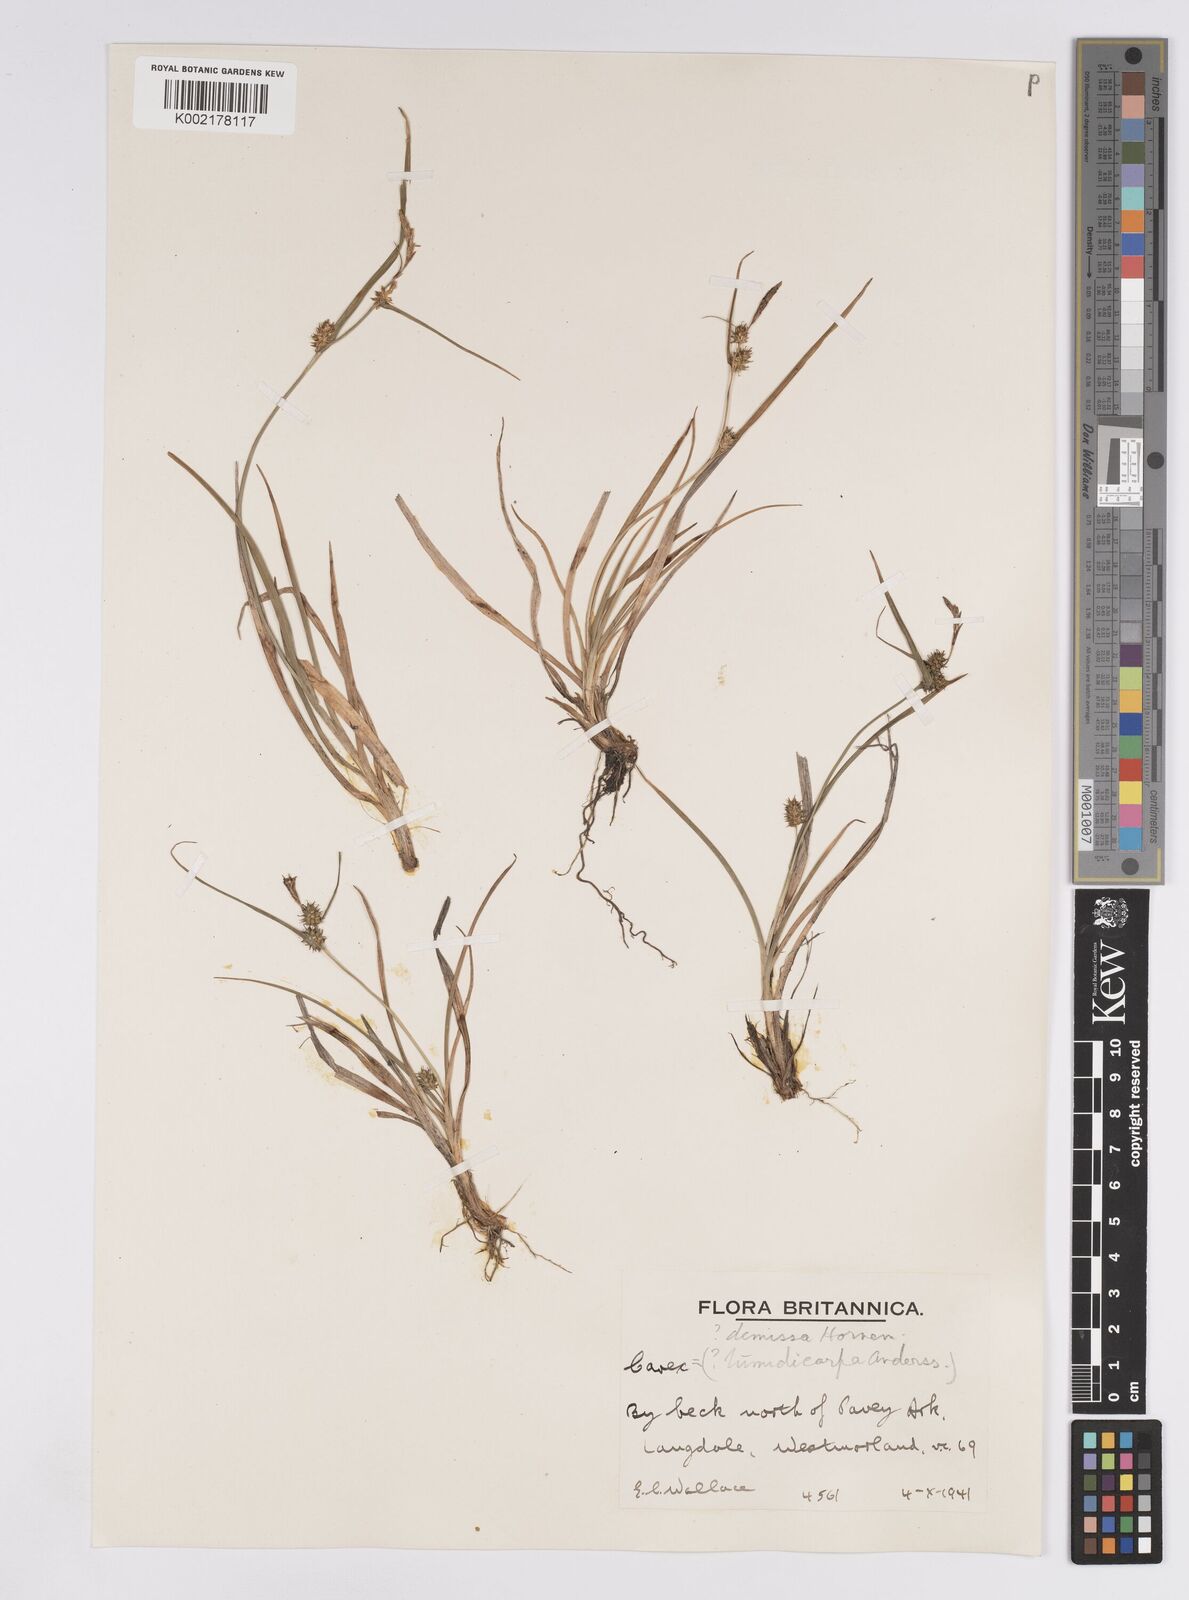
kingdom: Plantae
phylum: Tracheophyta
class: Liliopsida
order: Poales
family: Cyperaceae
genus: Carex
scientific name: Carex demissa
